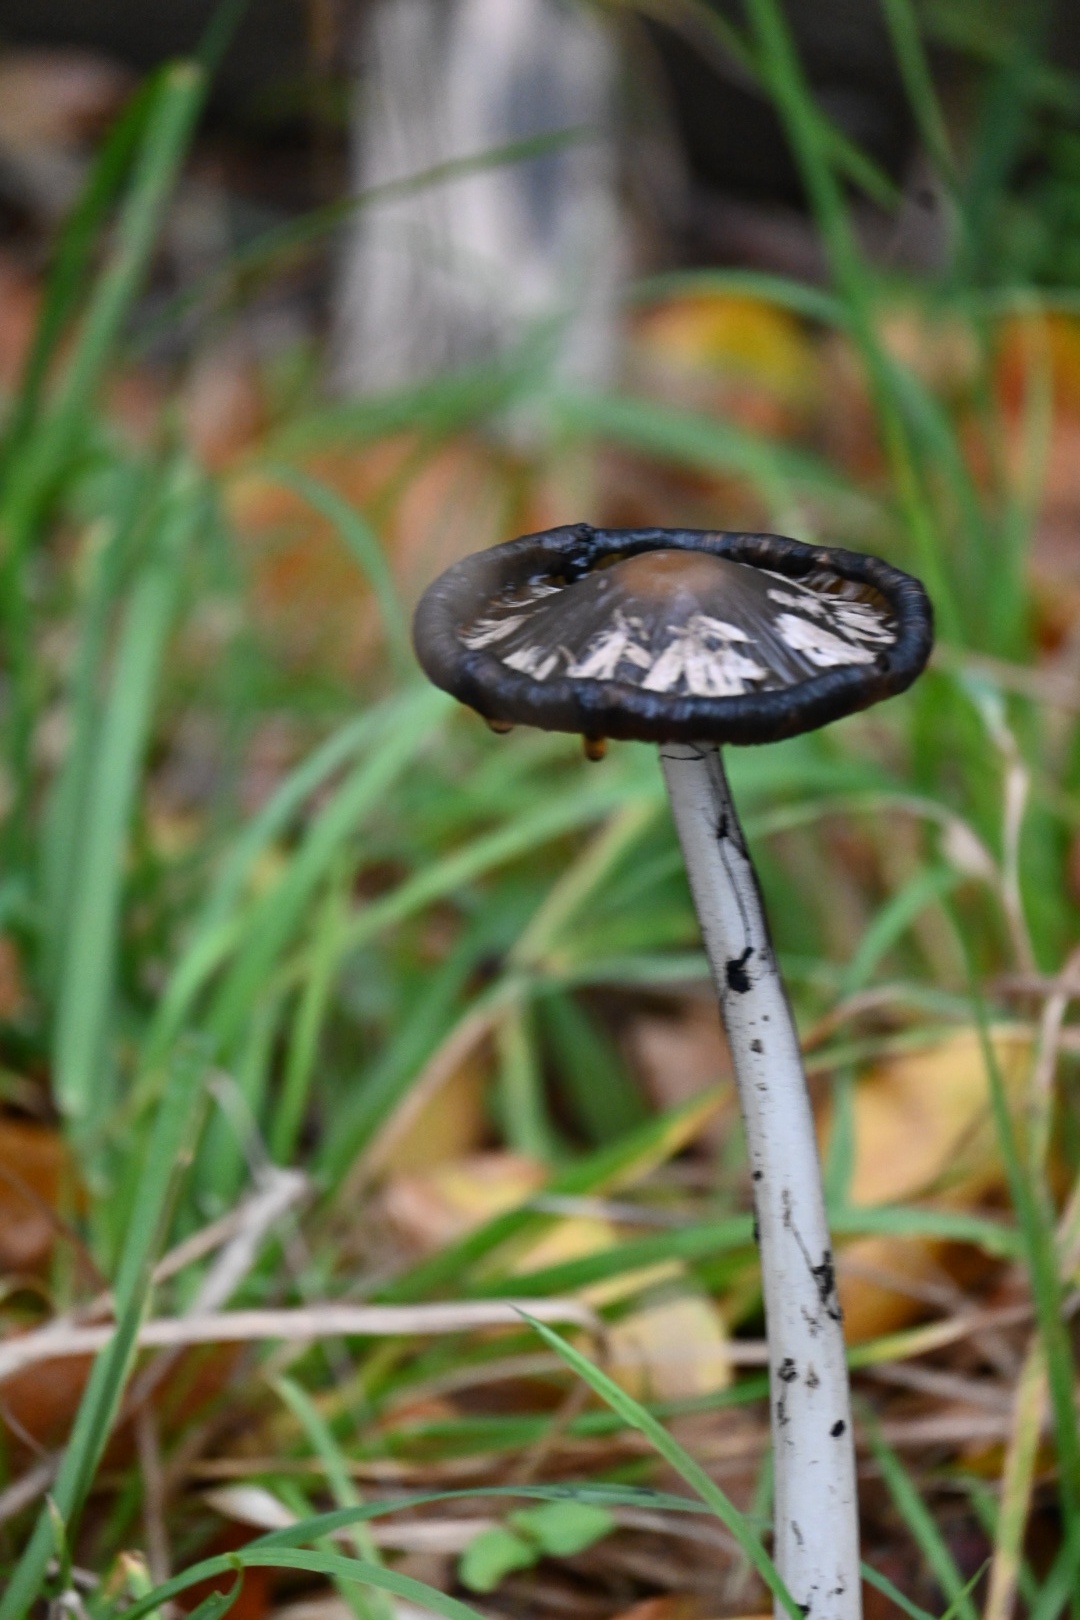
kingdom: Fungi
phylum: Basidiomycota
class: Agaricomycetes
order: Agaricales
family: Psathyrellaceae
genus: Coprinopsis
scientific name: Coprinopsis picacea
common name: skade-blækhat
